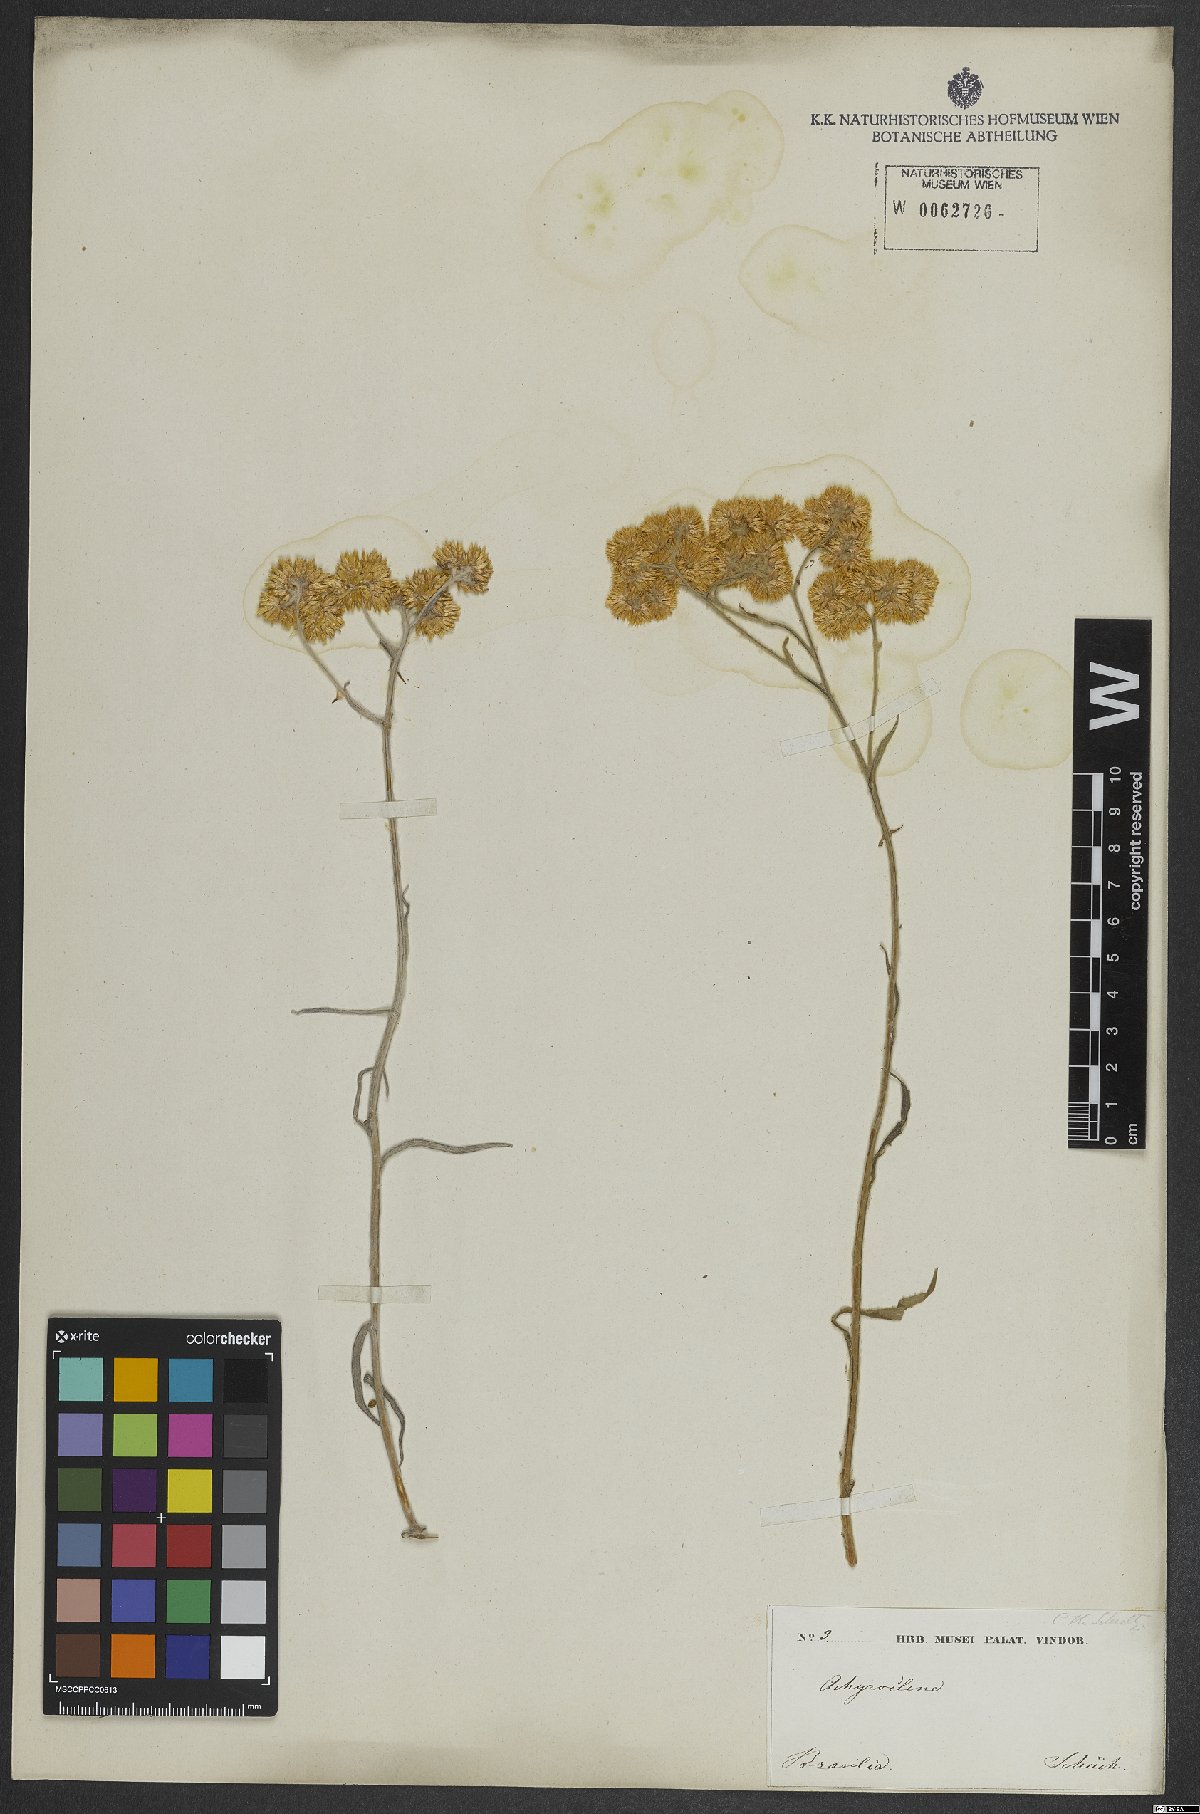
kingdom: Plantae
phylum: Tracheophyta
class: Magnoliopsida
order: Asterales
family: Asteraceae
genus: Achyrocline
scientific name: Achyrocline
